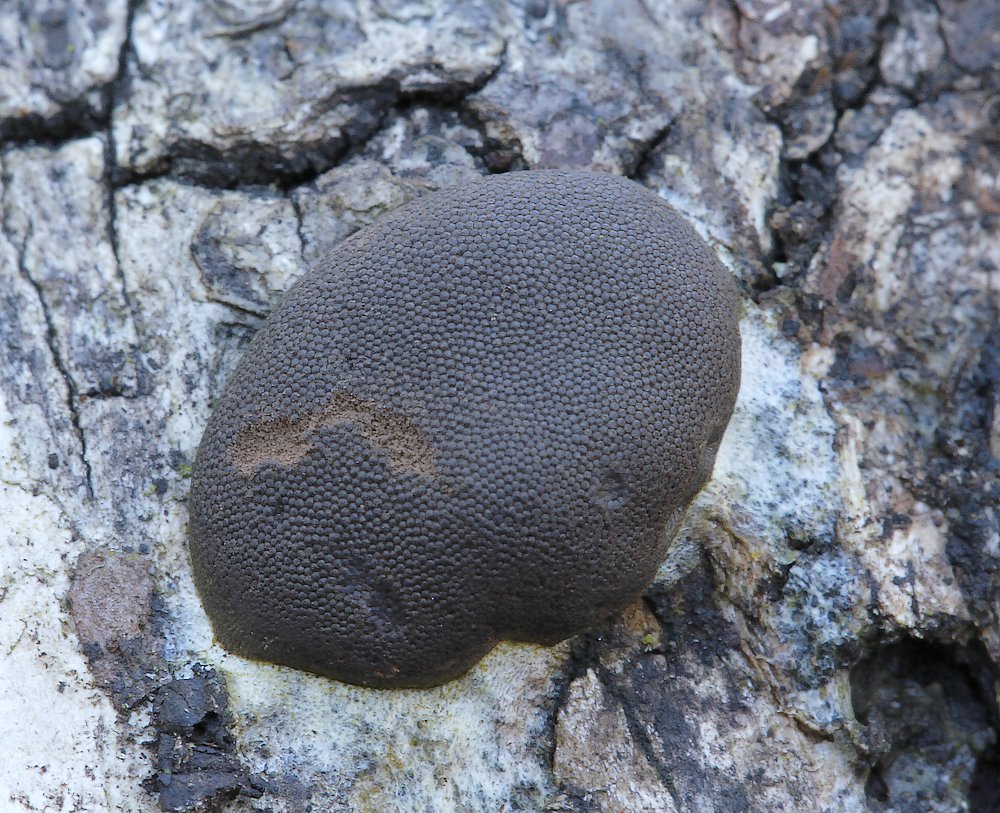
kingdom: Protozoa
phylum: Mycetozoa
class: Myxomycetes
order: Trichiales
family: Dictydiaethaliaceae
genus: Dictydiaethalium
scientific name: Dictydiaethalium plumbeum
